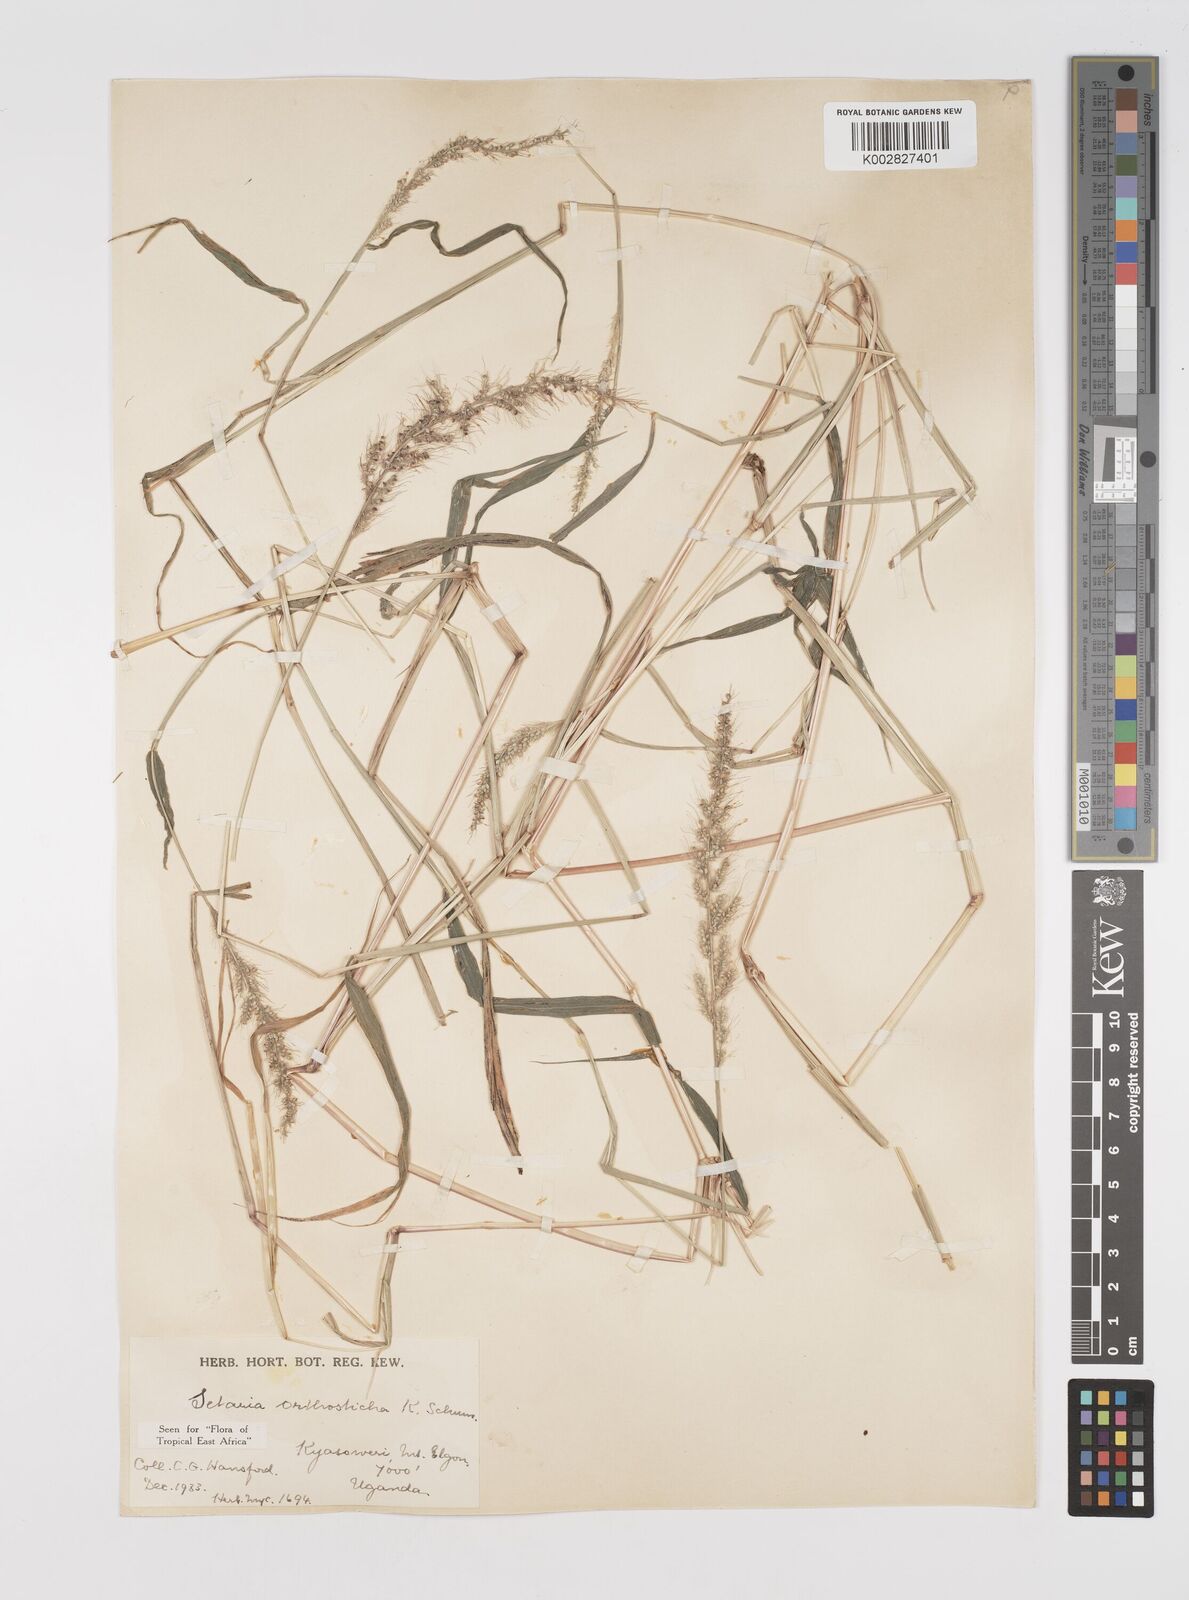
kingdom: Plantae
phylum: Tracheophyta
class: Liliopsida
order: Poales
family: Poaceae
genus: Setaria
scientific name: Setaria orthosticha
